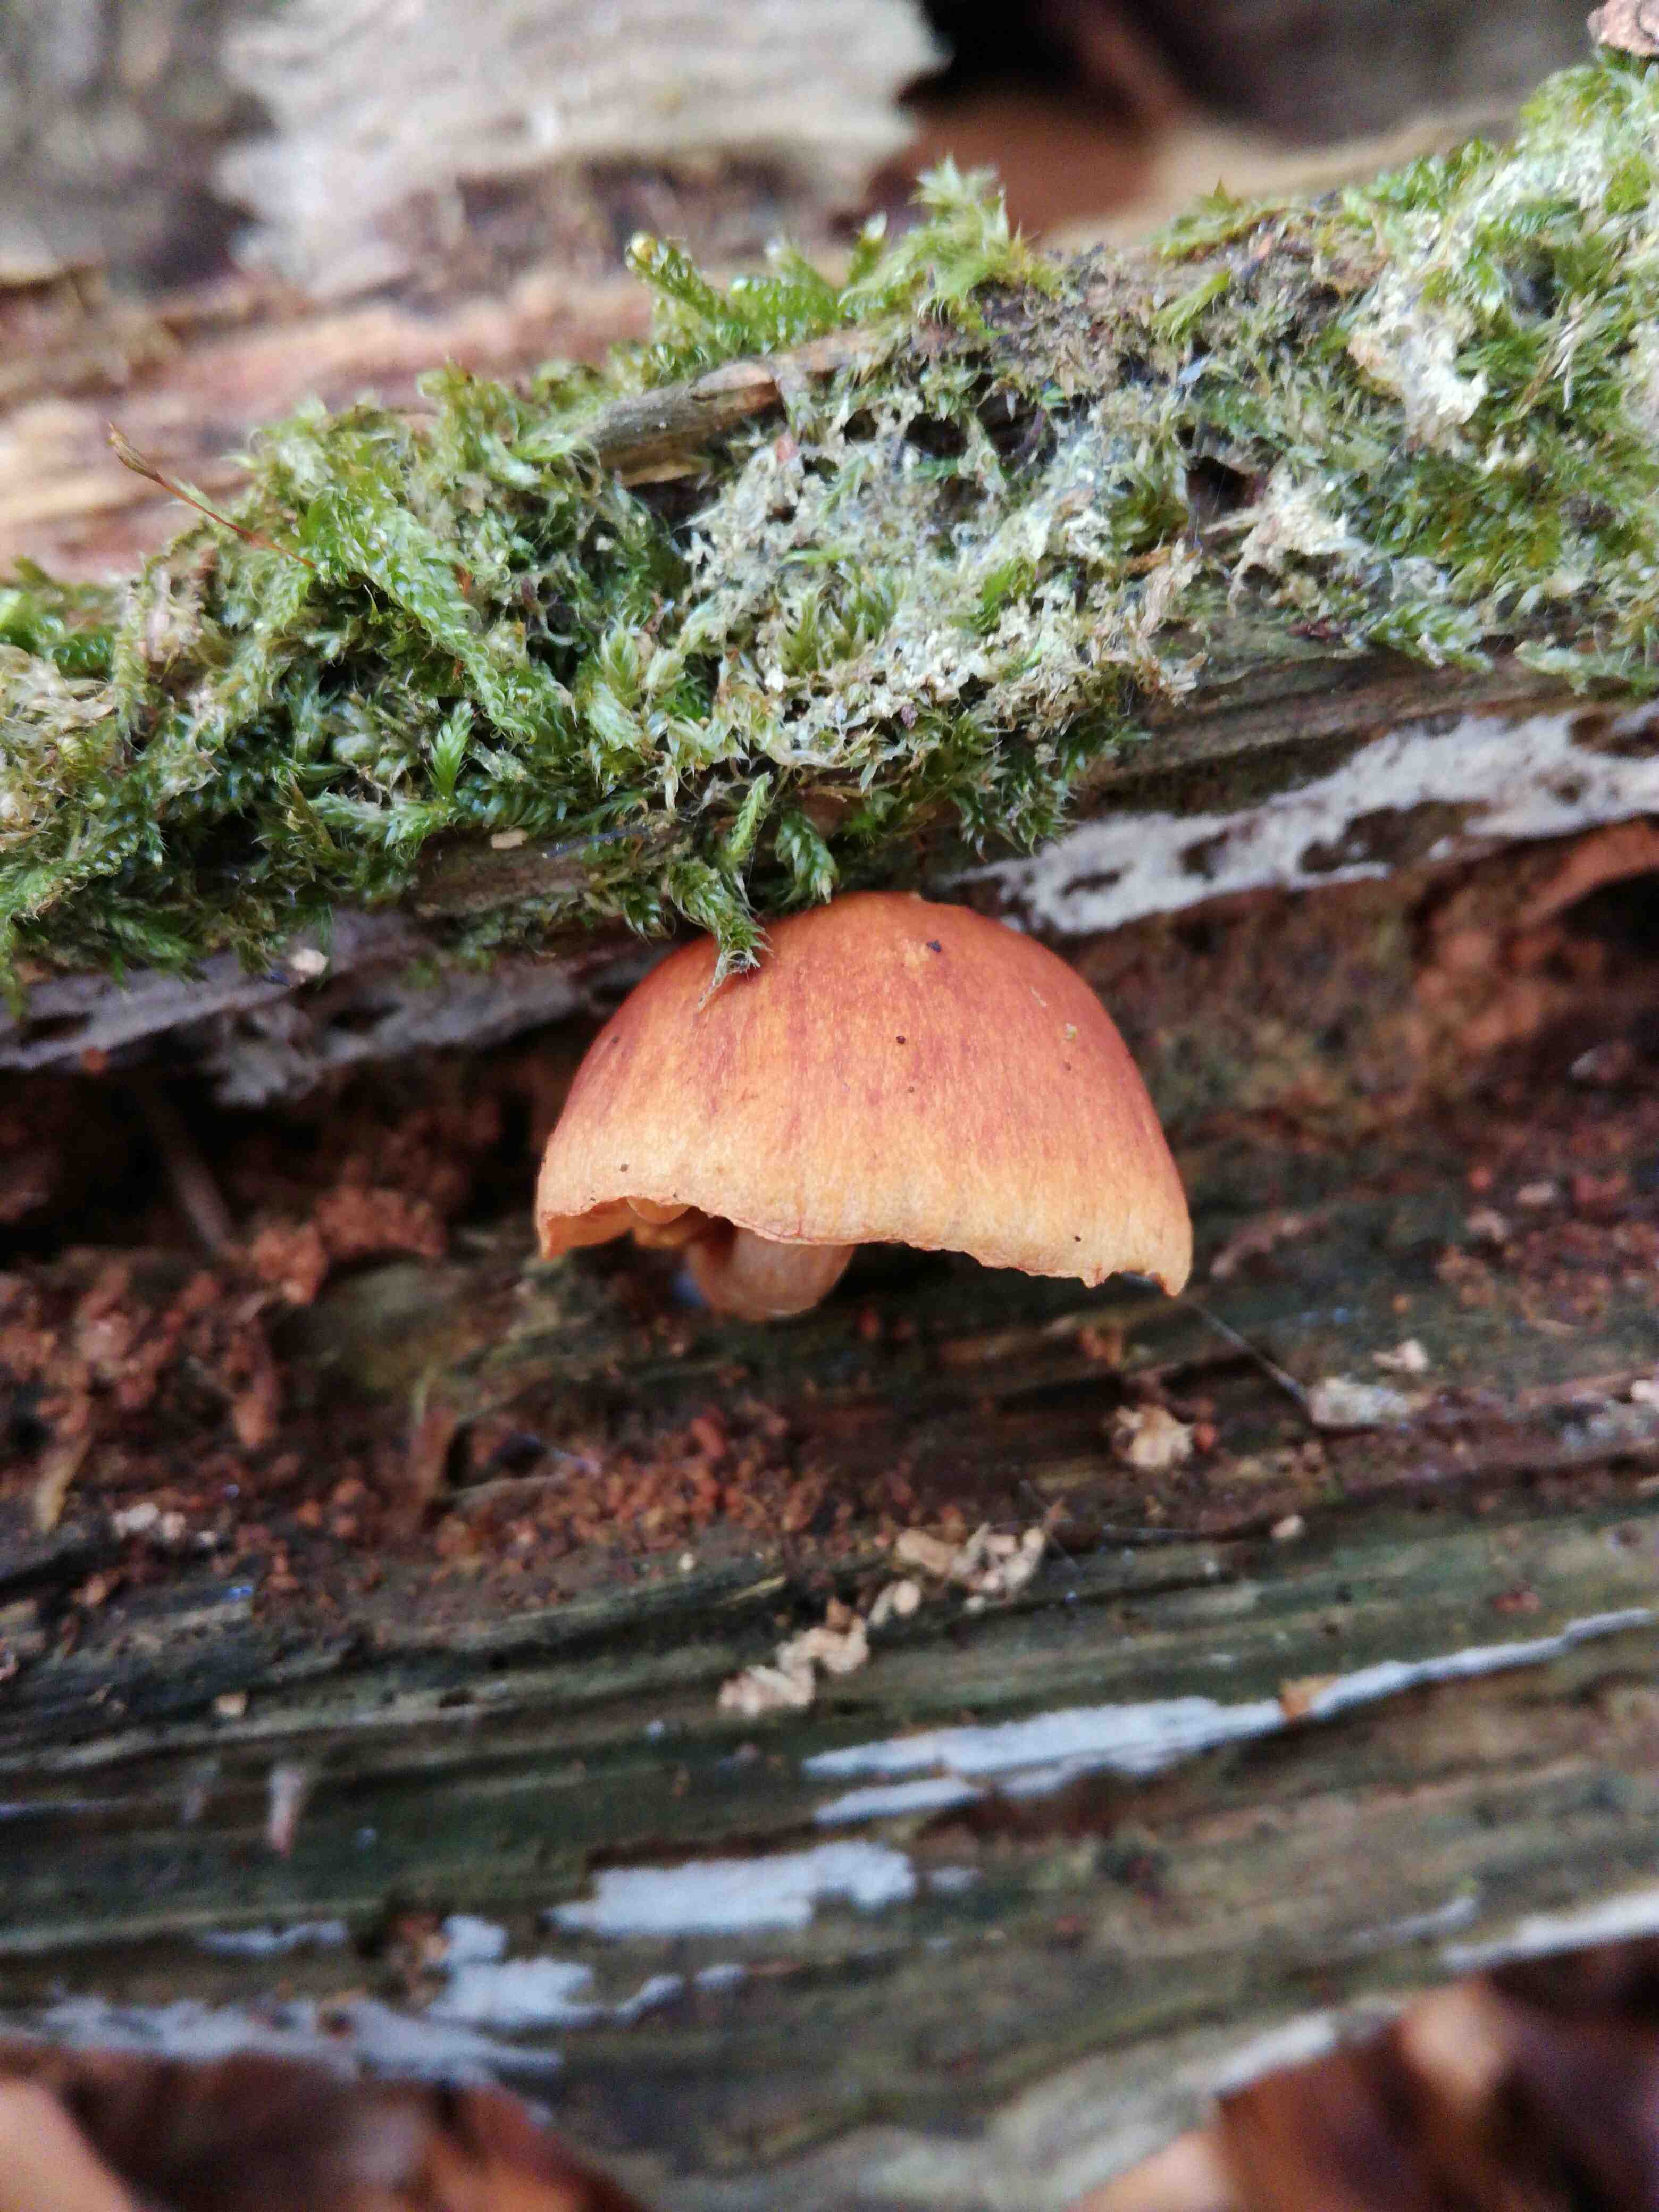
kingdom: Fungi
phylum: Basidiomycota
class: Agaricomycetes
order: Agaricales
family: Hymenogastraceae
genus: Gymnopilus
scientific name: Gymnopilus penetrans
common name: plettet flammehat
